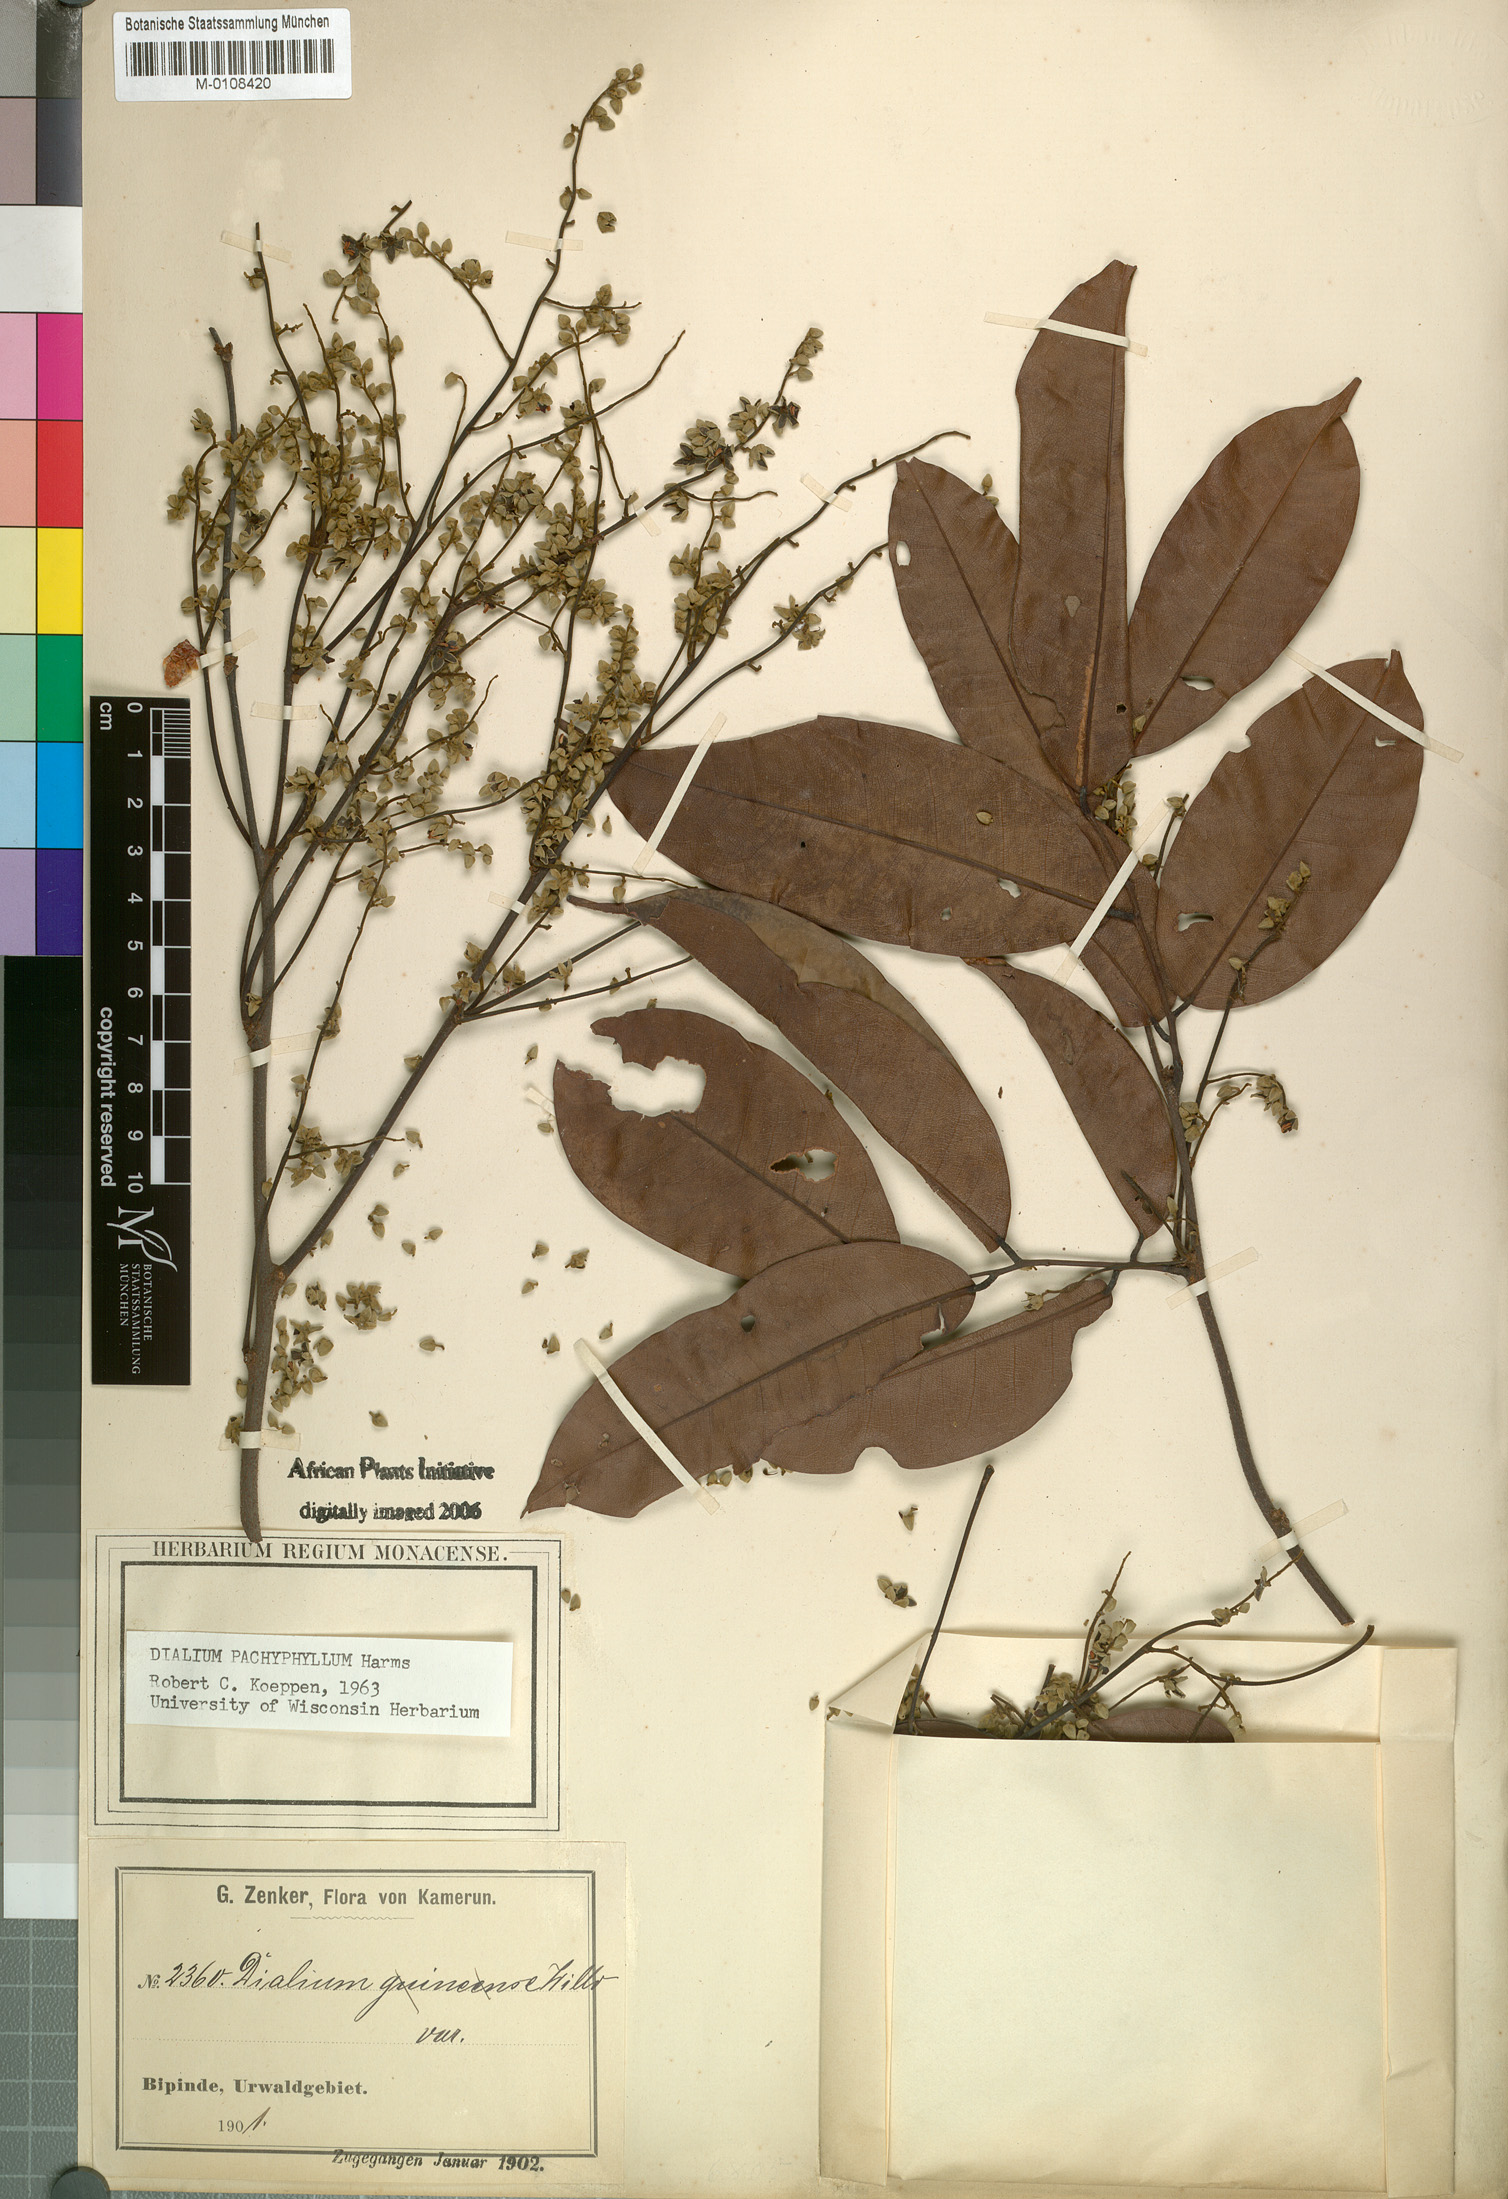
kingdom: Plantae
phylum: Tracheophyta
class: Magnoliopsida
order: Fabales
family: Fabaceae
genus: Dialium
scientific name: Dialium pachyphyllum
